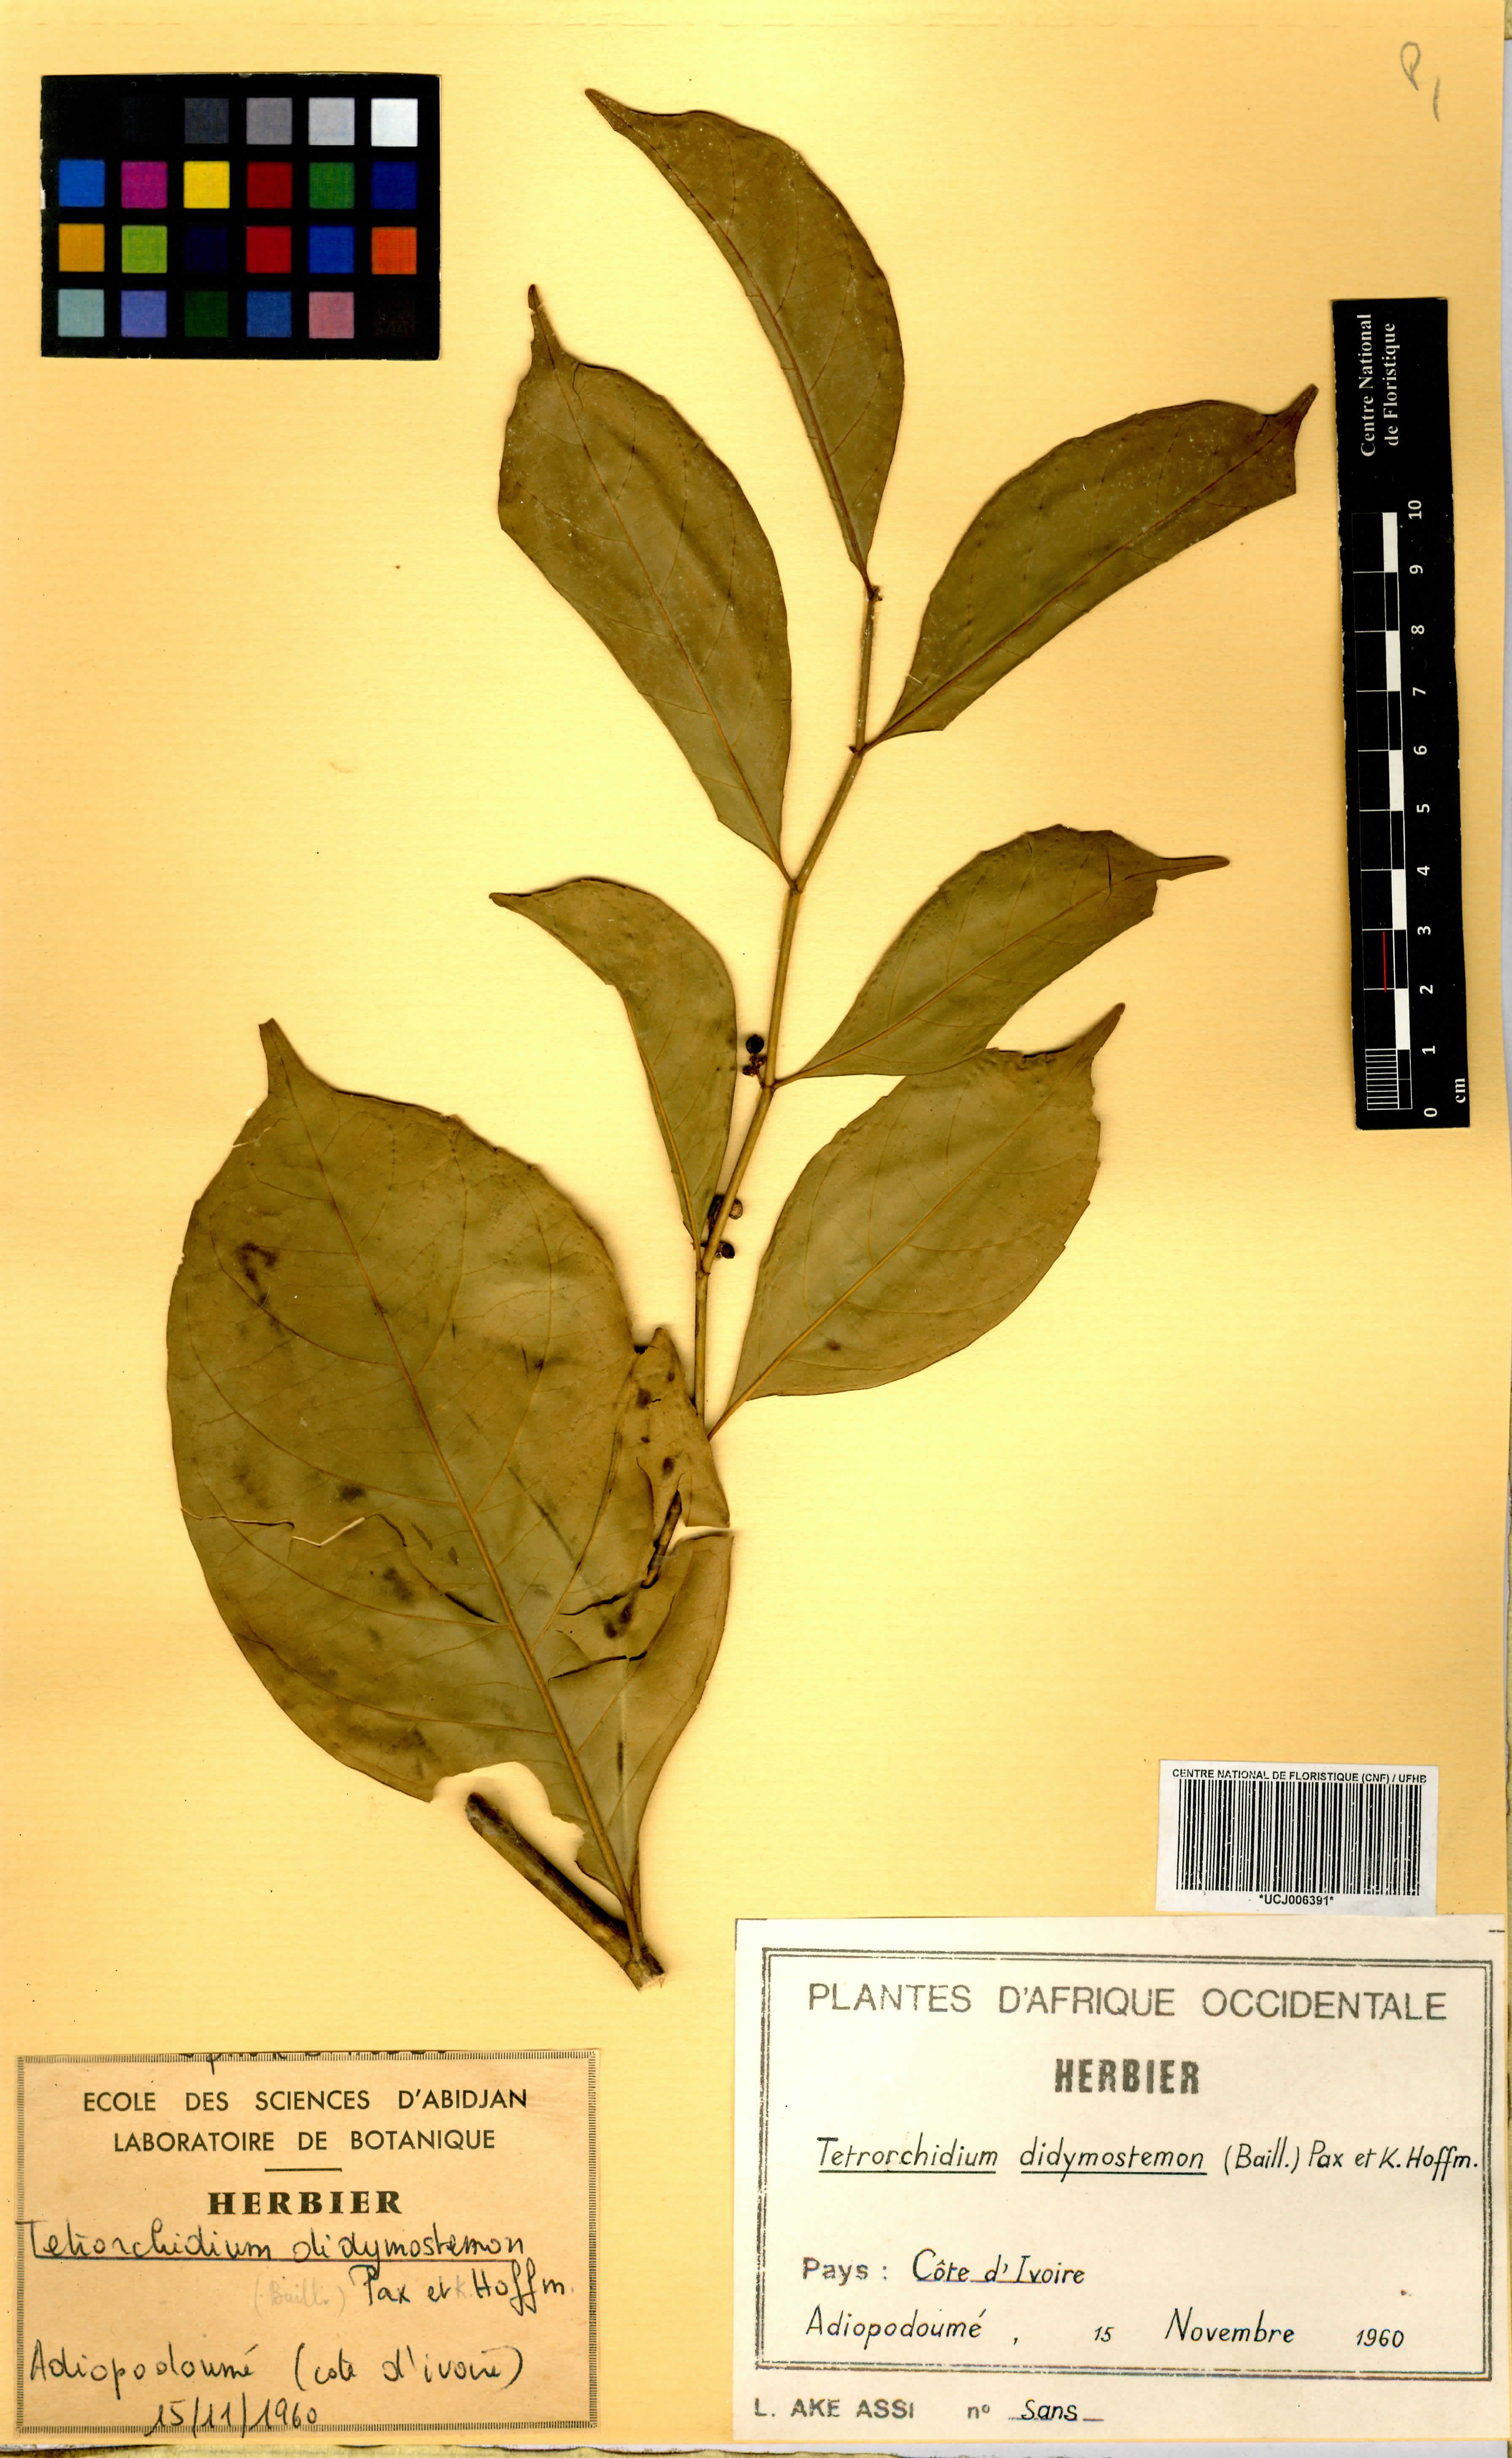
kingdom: Plantae
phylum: Tracheophyta
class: Magnoliopsida
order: Malpighiales
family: Euphorbiaceae
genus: Tetrorchidium
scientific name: Tetrorchidium didymostemon
